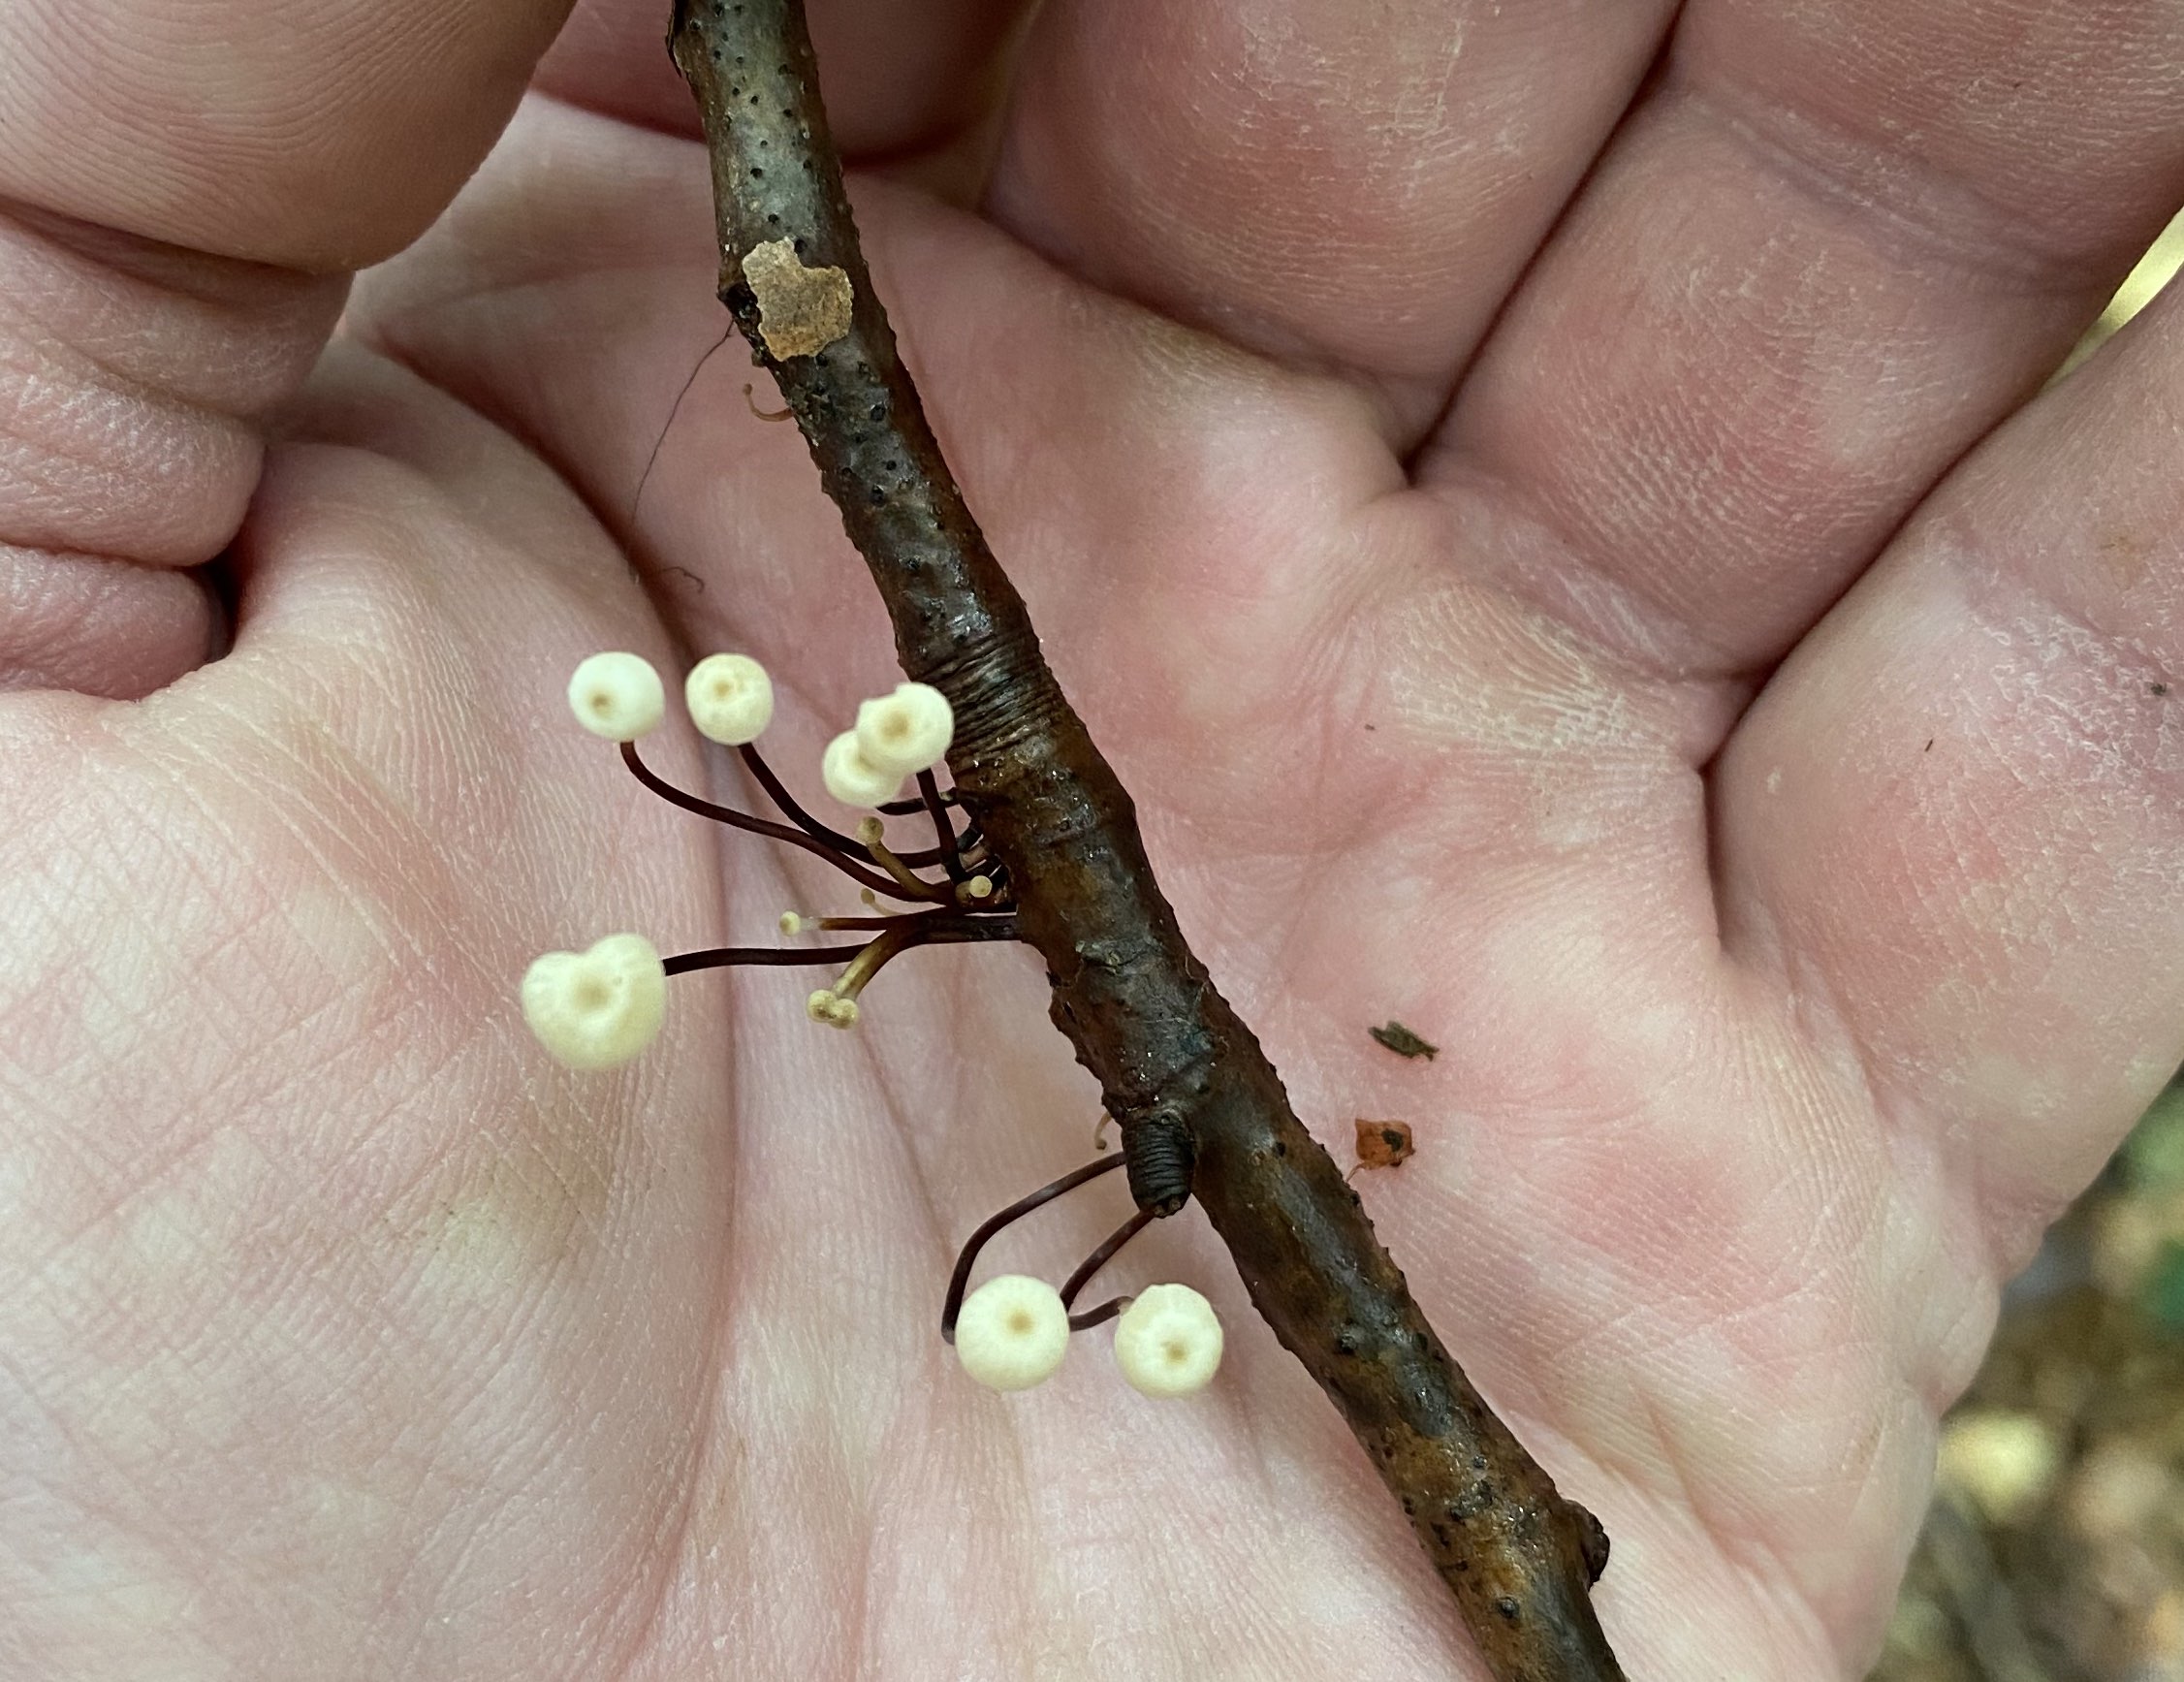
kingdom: Fungi
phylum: Basidiomycota
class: Agaricomycetes
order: Agaricales
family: Marasmiaceae
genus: Marasmius
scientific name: Marasmius rotula
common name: hjul-bruskhat
